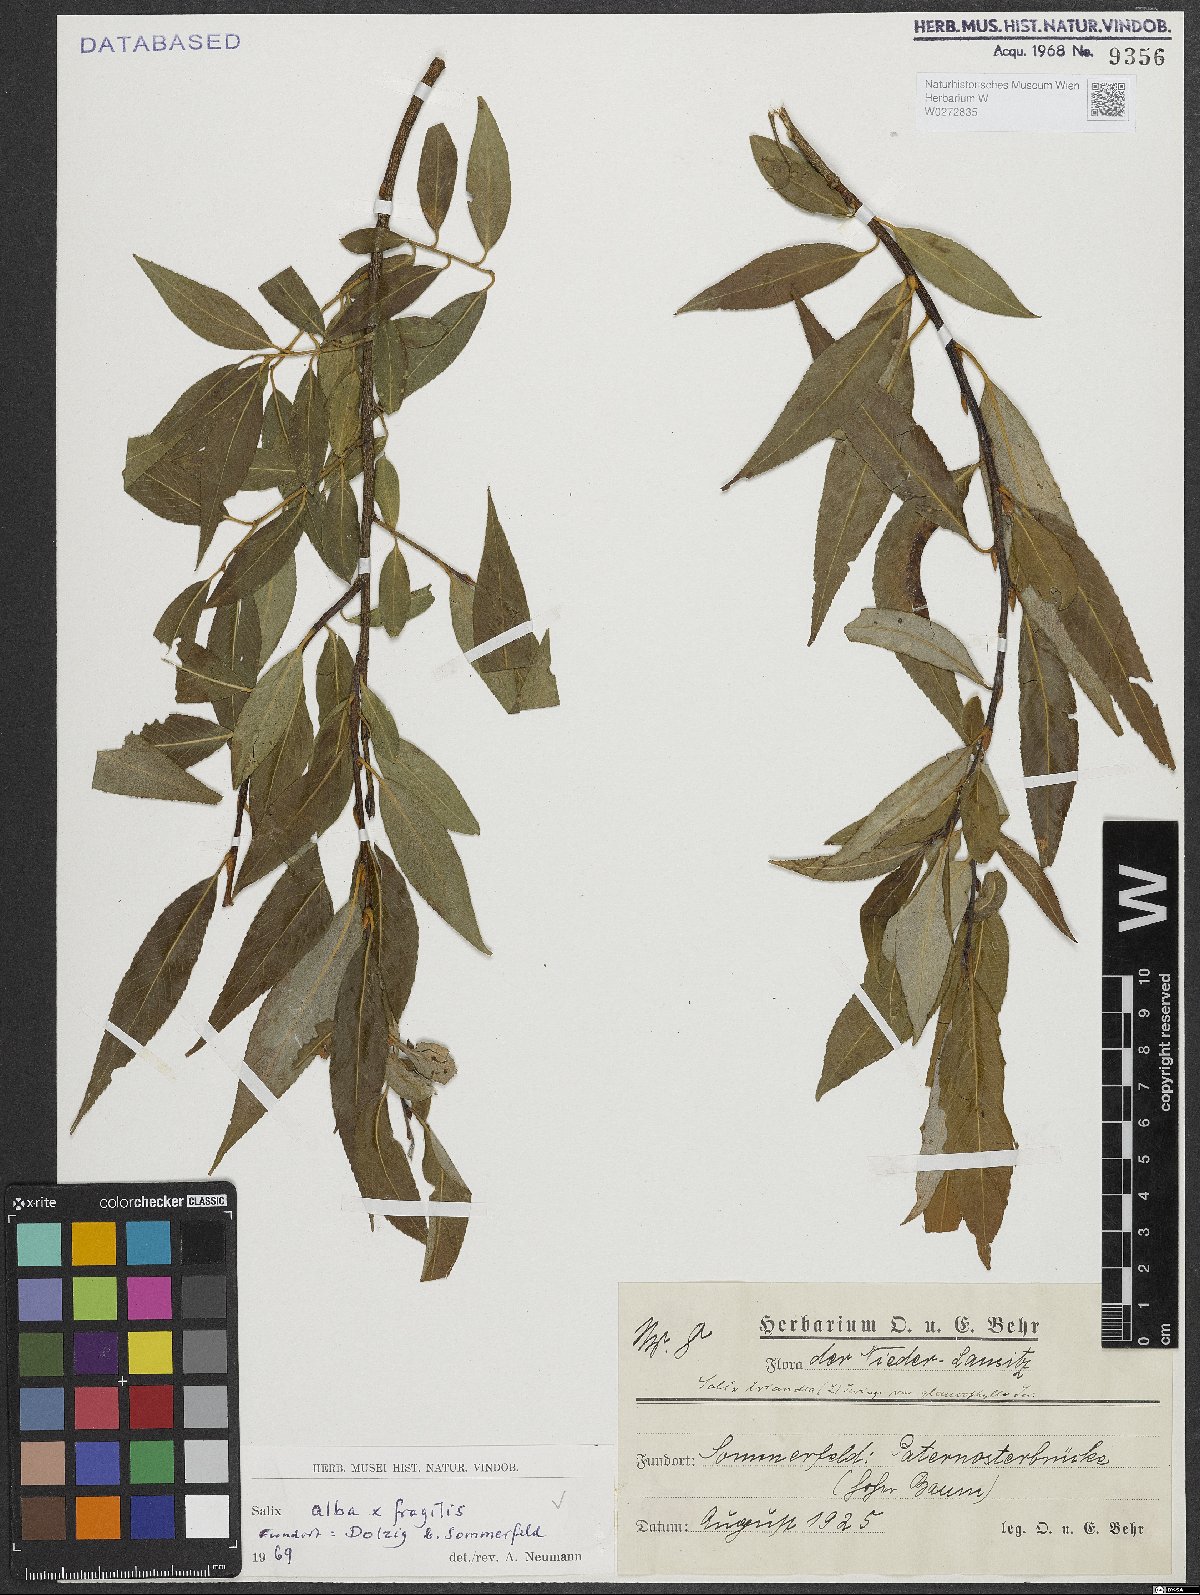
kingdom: Plantae
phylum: Tracheophyta
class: Magnoliopsida
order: Malpighiales
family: Salicaceae
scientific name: Salicaceae
